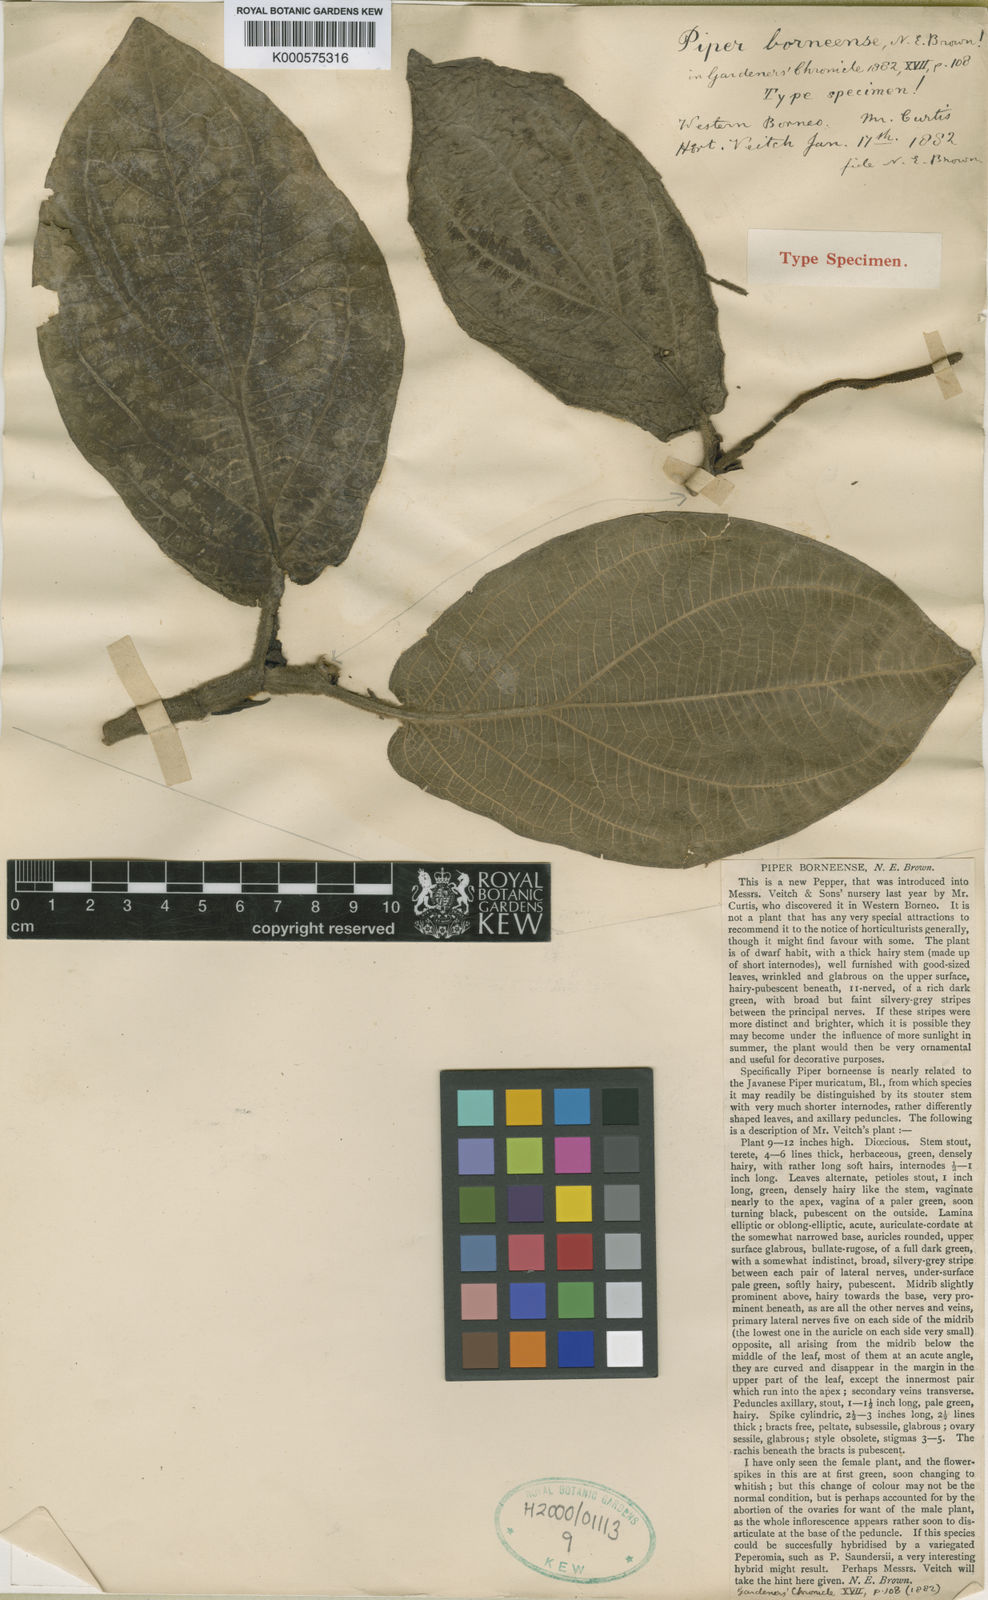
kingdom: Plantae
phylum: Tracheophyta
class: Magnoliopsida
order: Piperales
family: Piperaceae
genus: Piper
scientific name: Piper borneense
